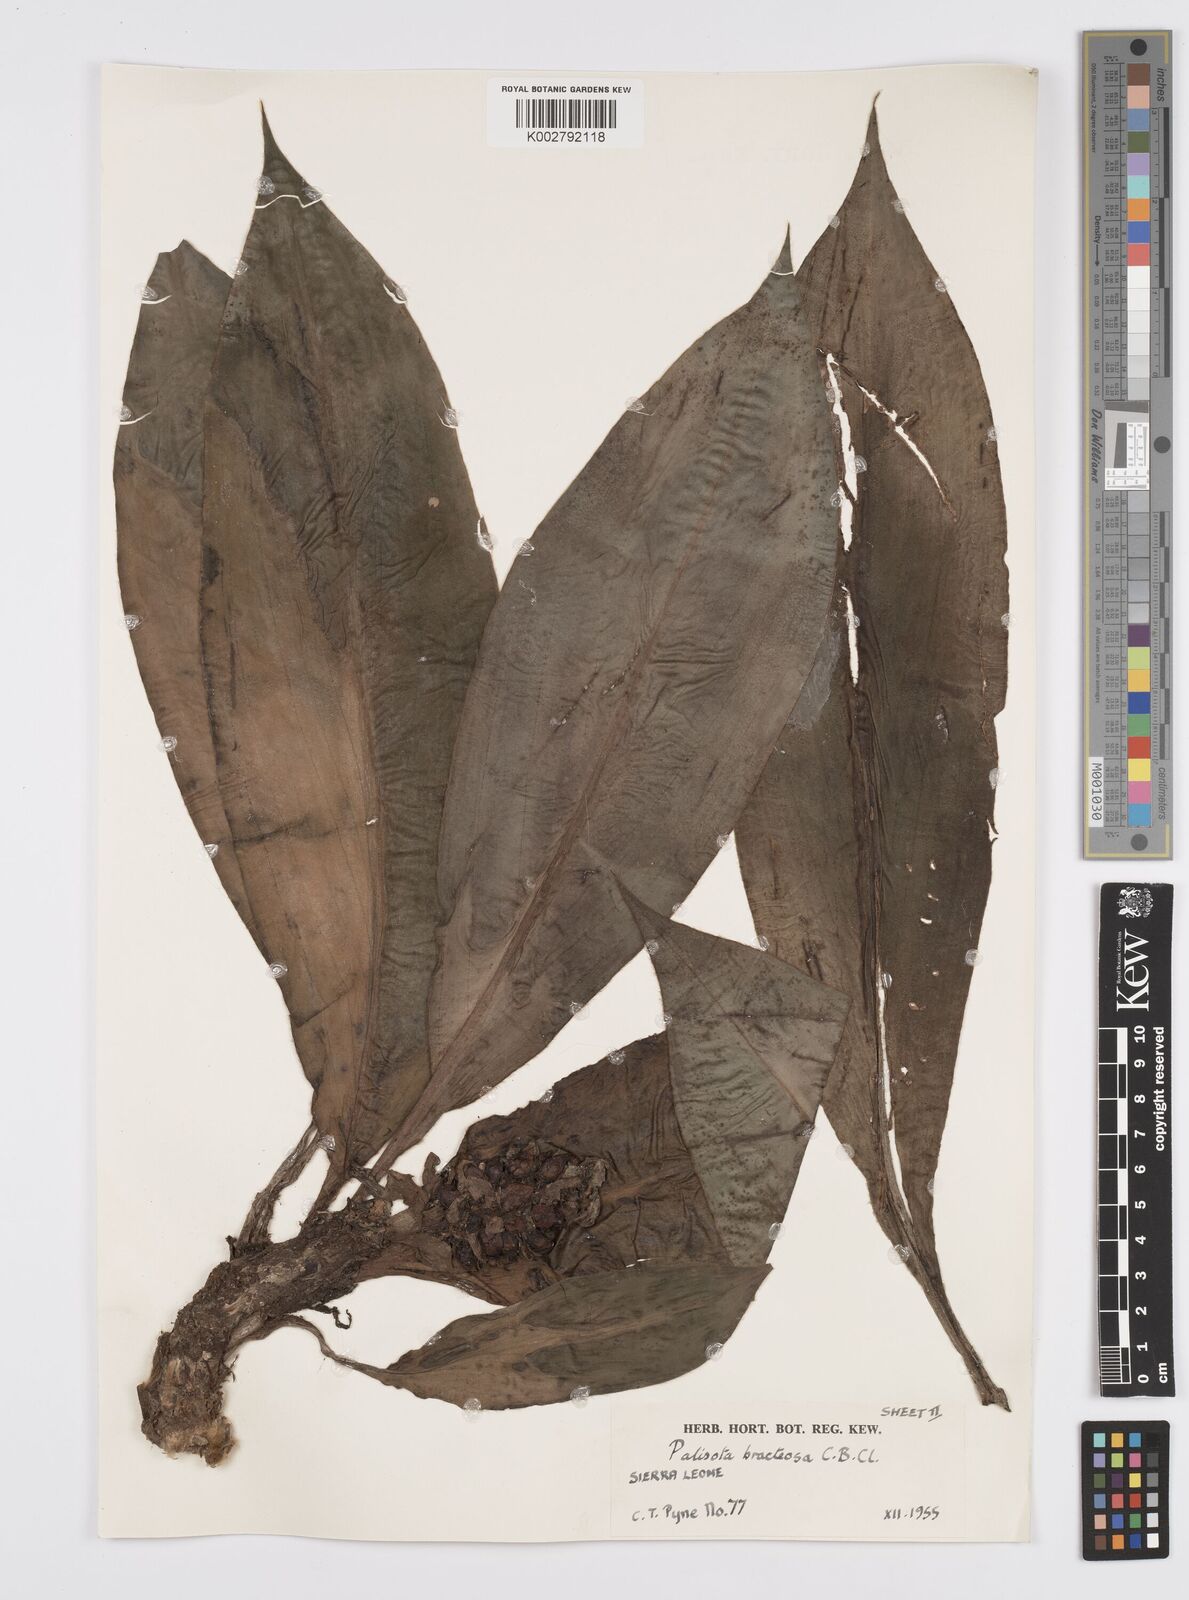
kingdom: Plantae
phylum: Tracheophyta
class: Liliopsida
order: Commelinales
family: Commelinaceae
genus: Palisota
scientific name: Palisota bracteosa
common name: Palisota
